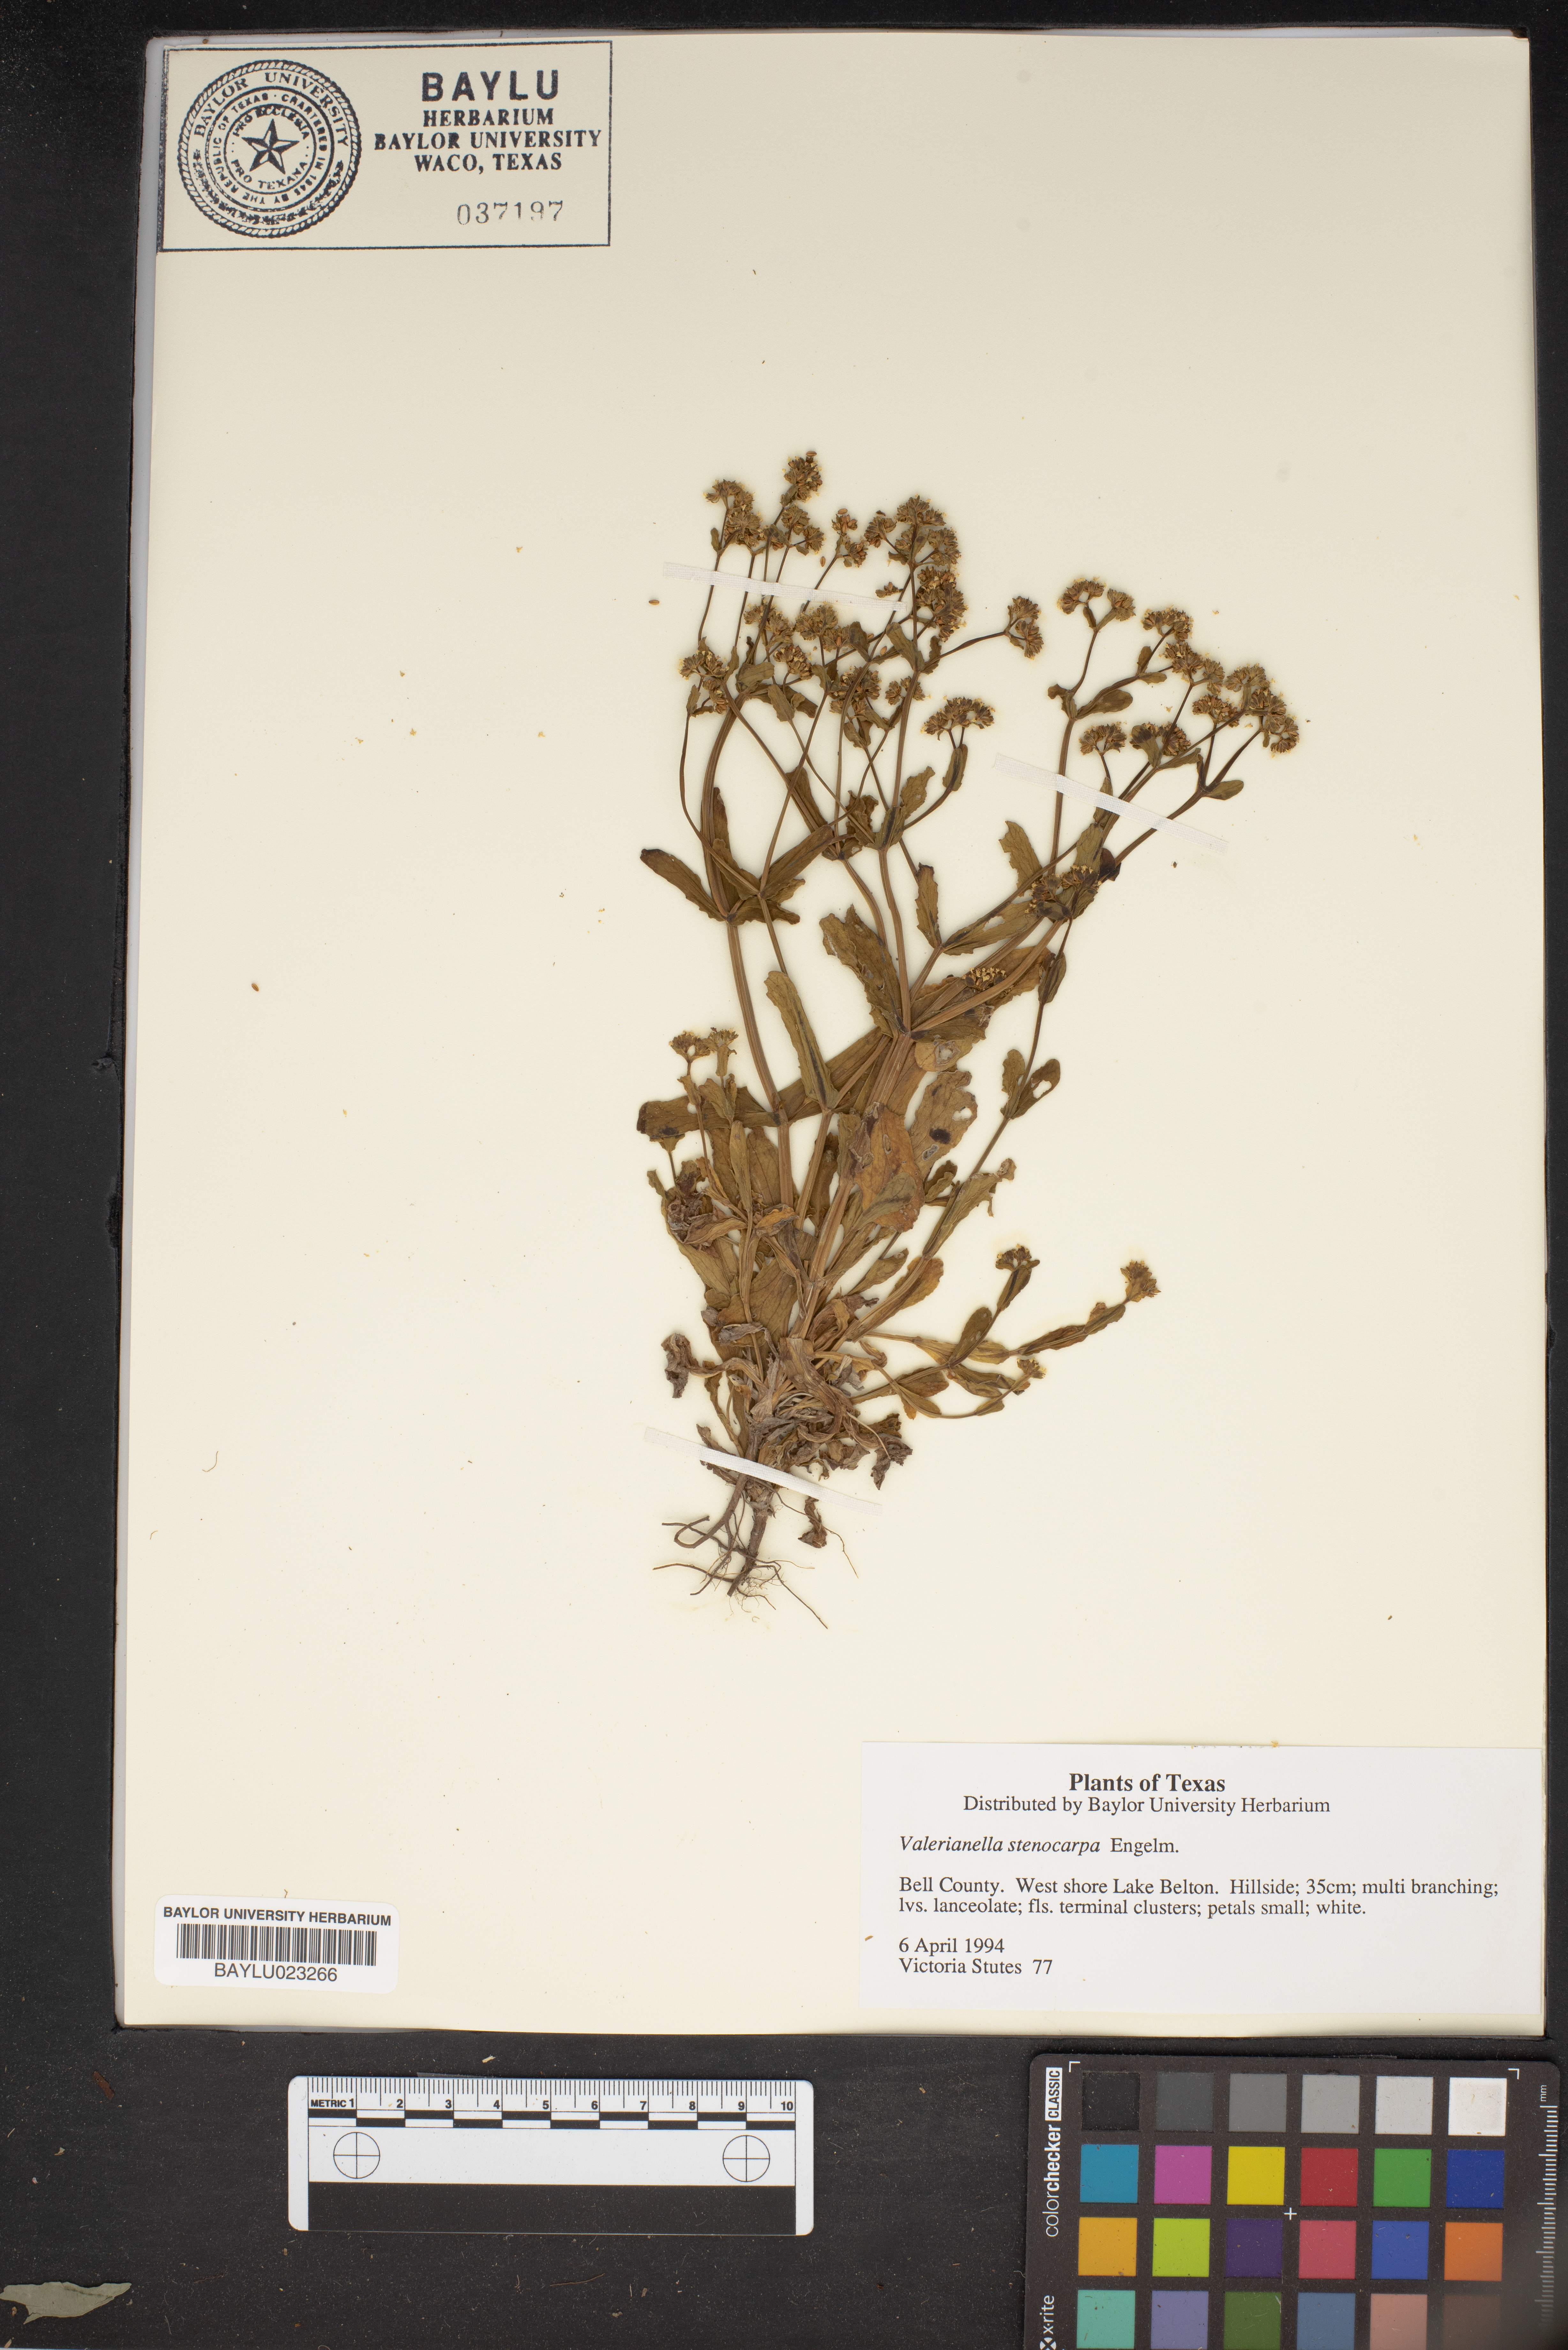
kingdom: Plantae
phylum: Tracheophyta
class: Magnoliopsida
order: Dipsacales
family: Caprifoliaceae
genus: Valerianella
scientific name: Valerianella stenocarpa
